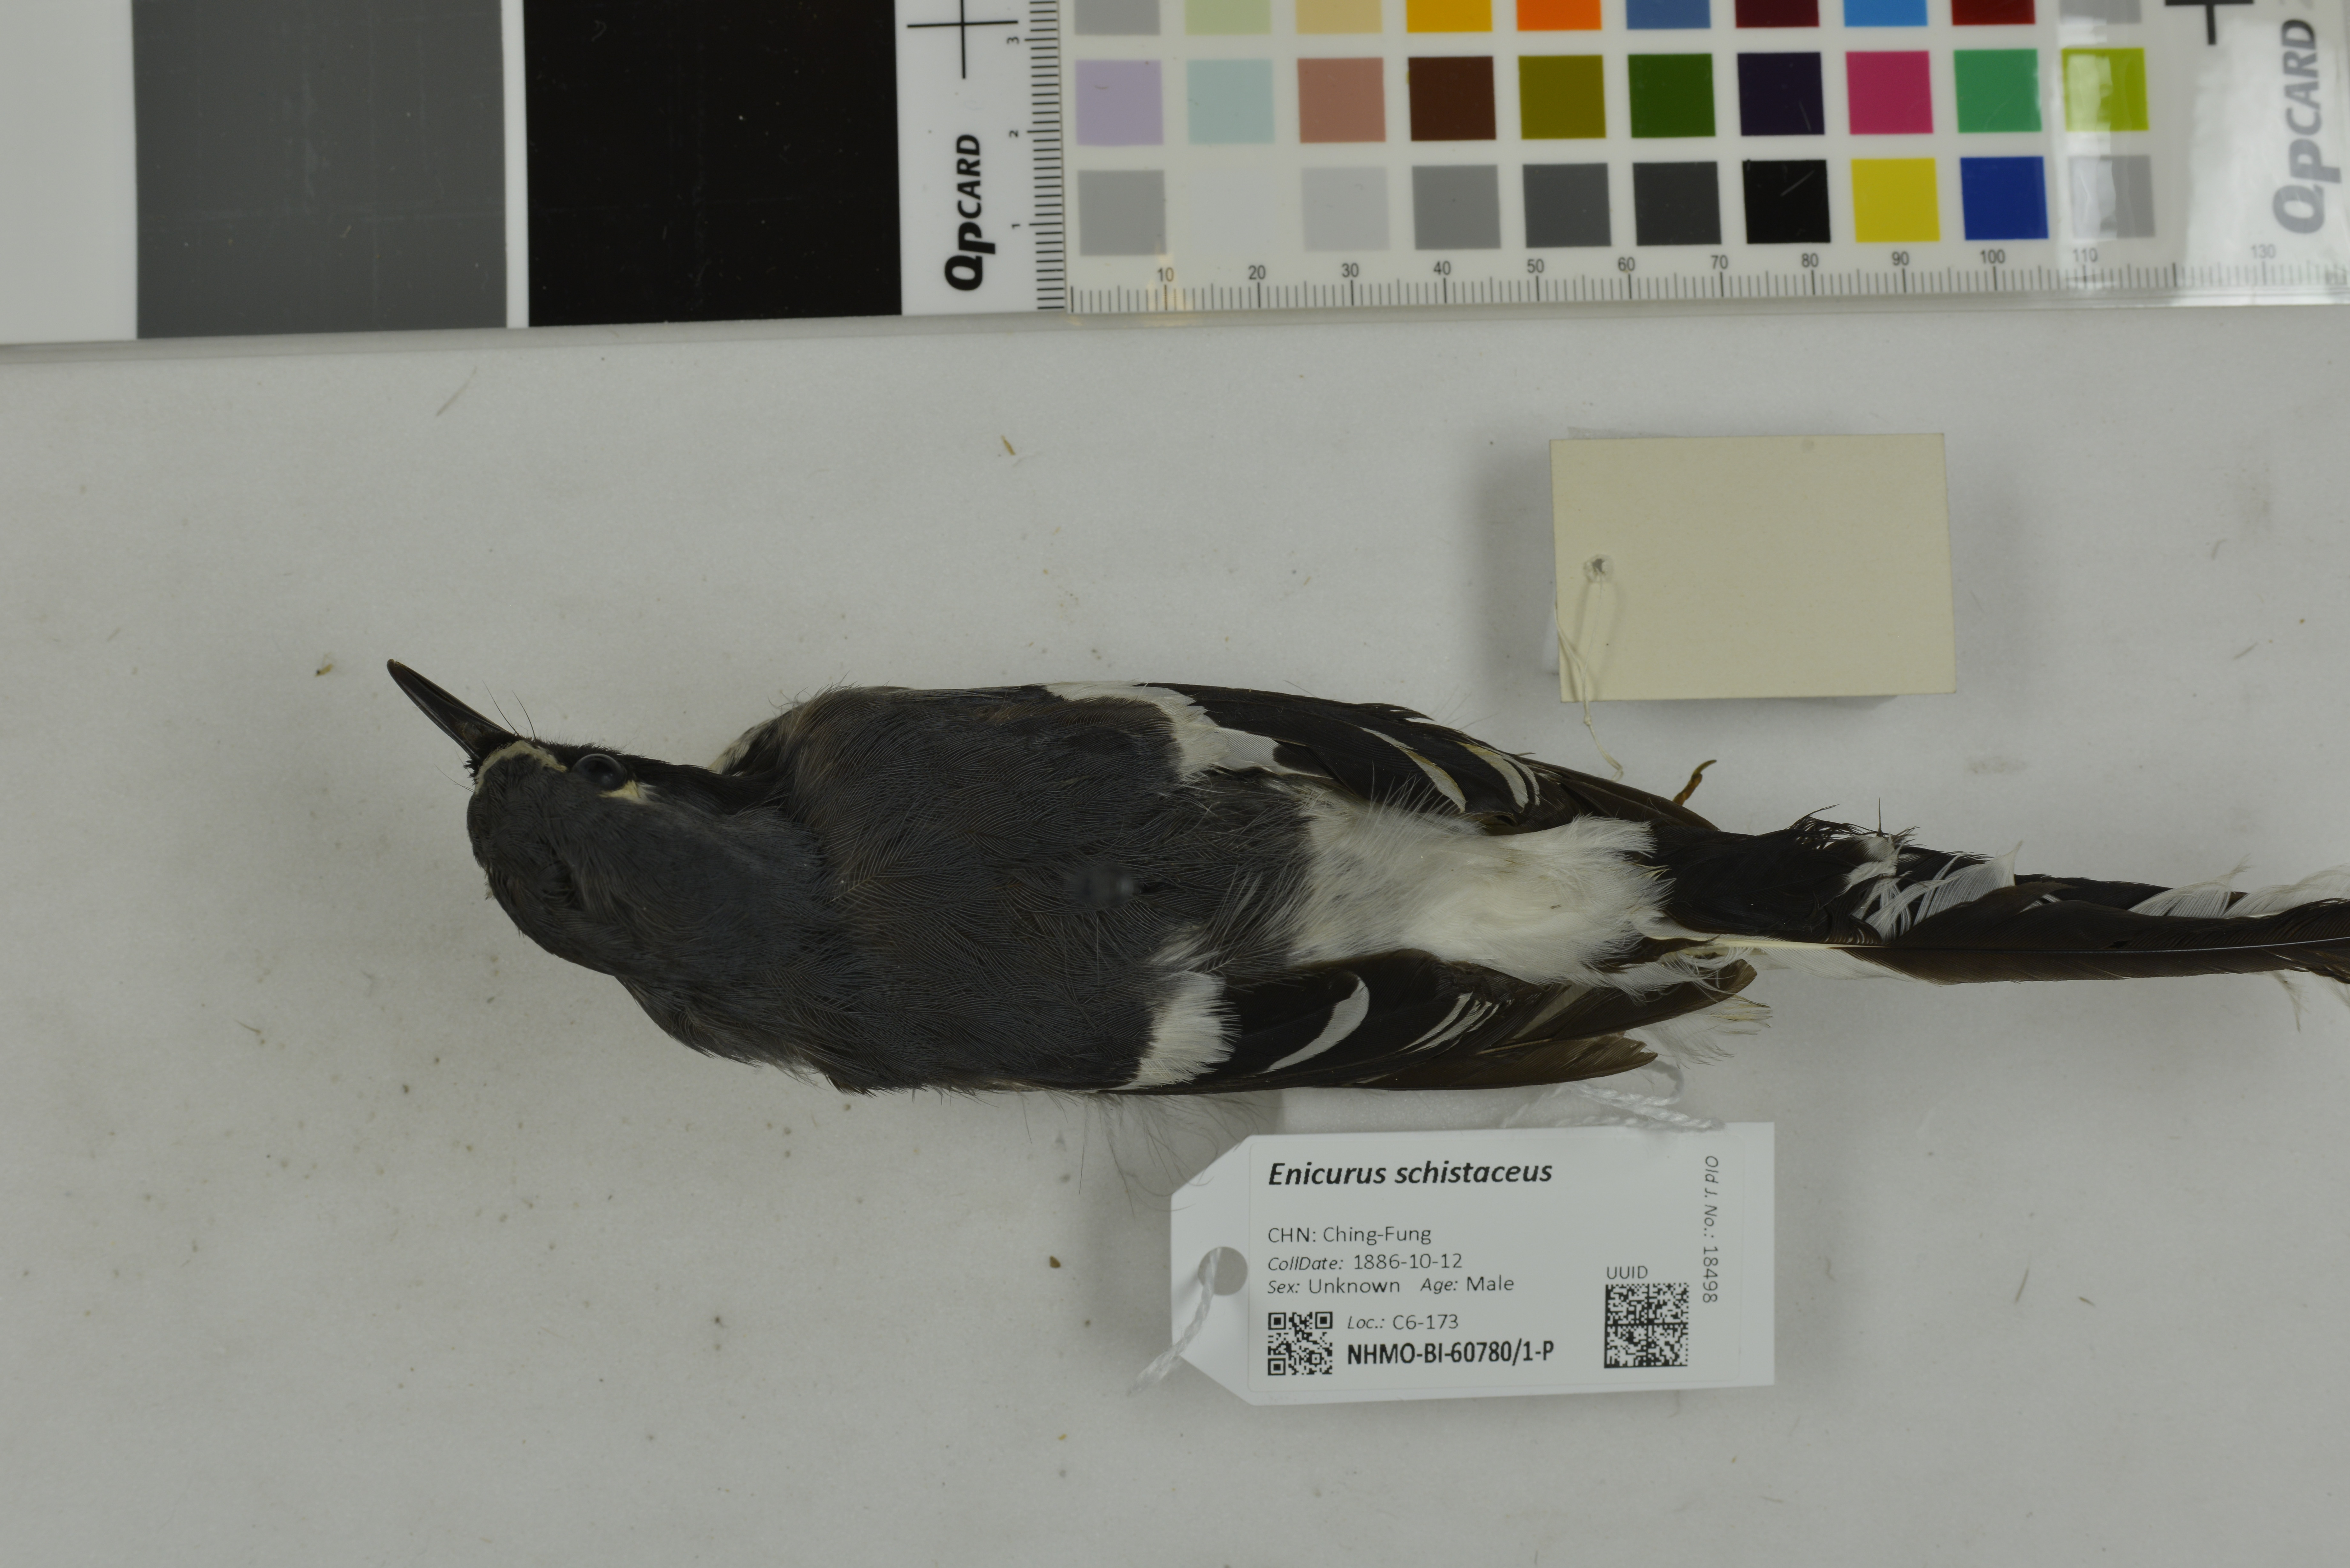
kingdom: Animalia
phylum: Chordata
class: Aves
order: Passeriformes
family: Muscicapidae
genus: Enicurus
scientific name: Enicurus schistaceus
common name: Slaty-backed forktail
